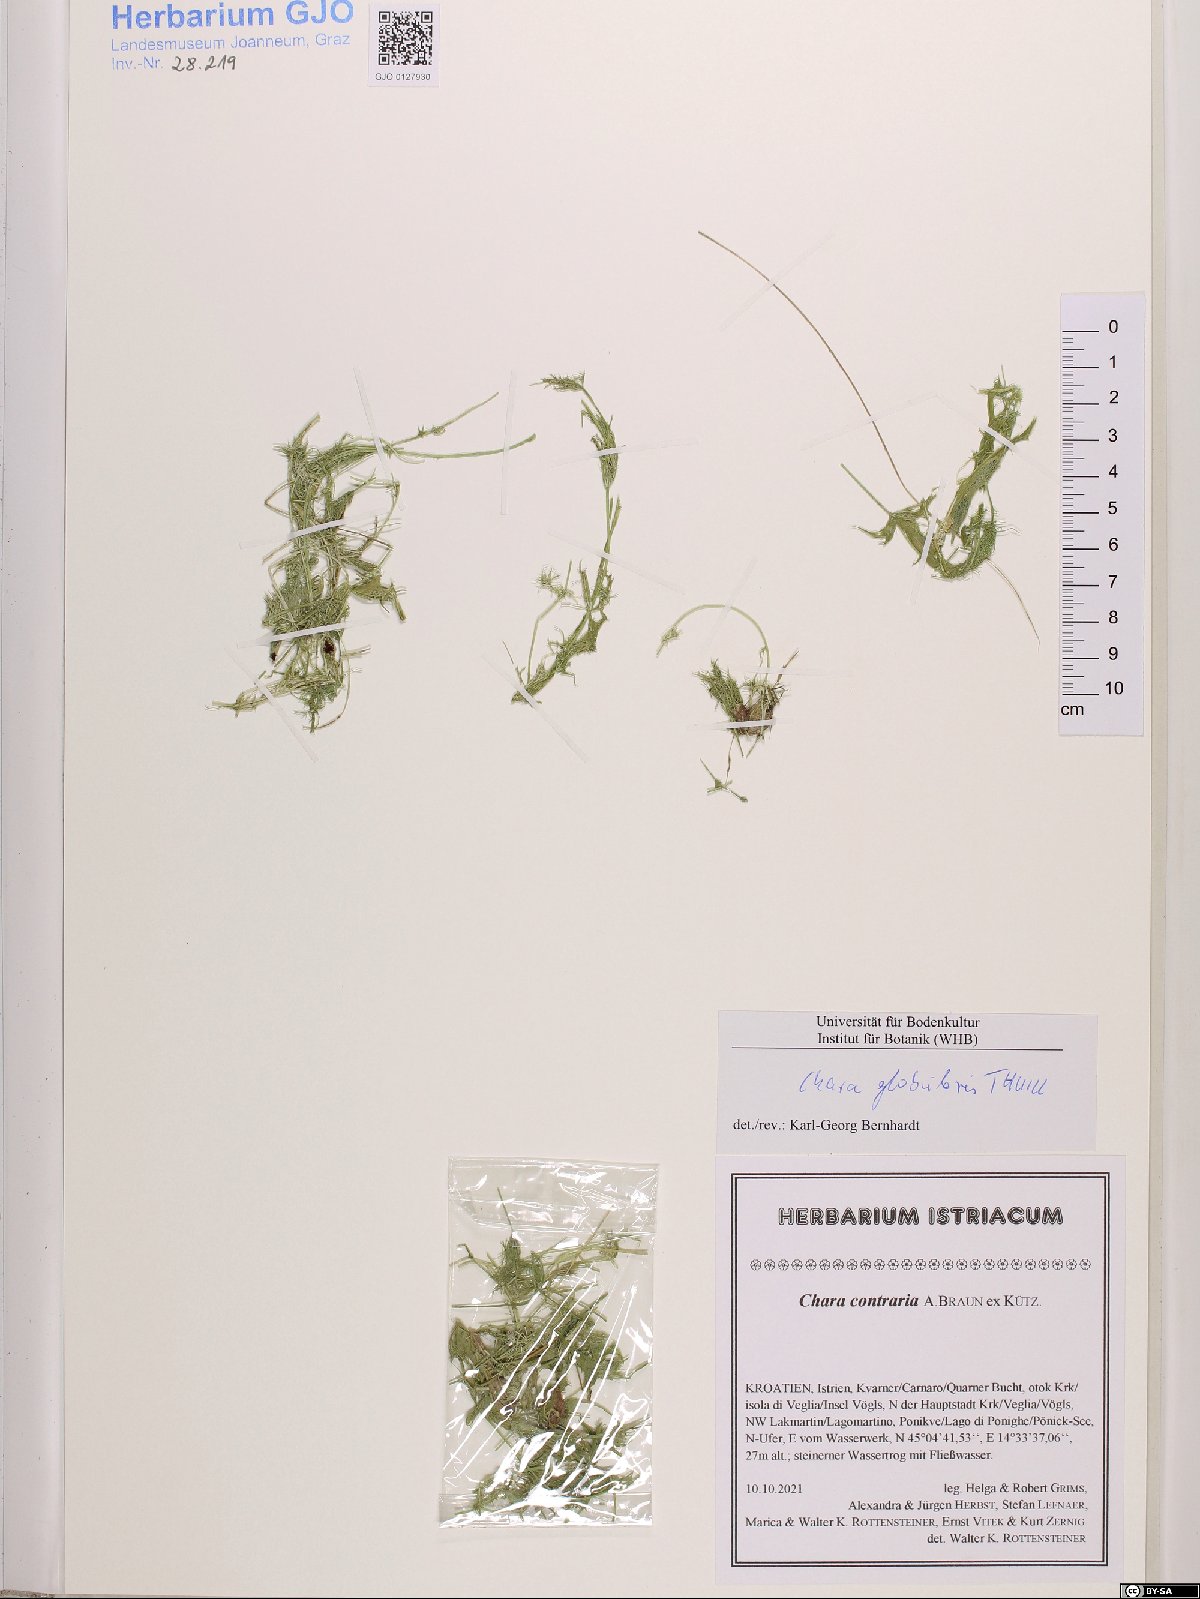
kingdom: Plantae
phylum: Charophyta
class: Charophyceae
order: Charales
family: Characeae
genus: Chara
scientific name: Chara globularis
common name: Fragile stonewort
